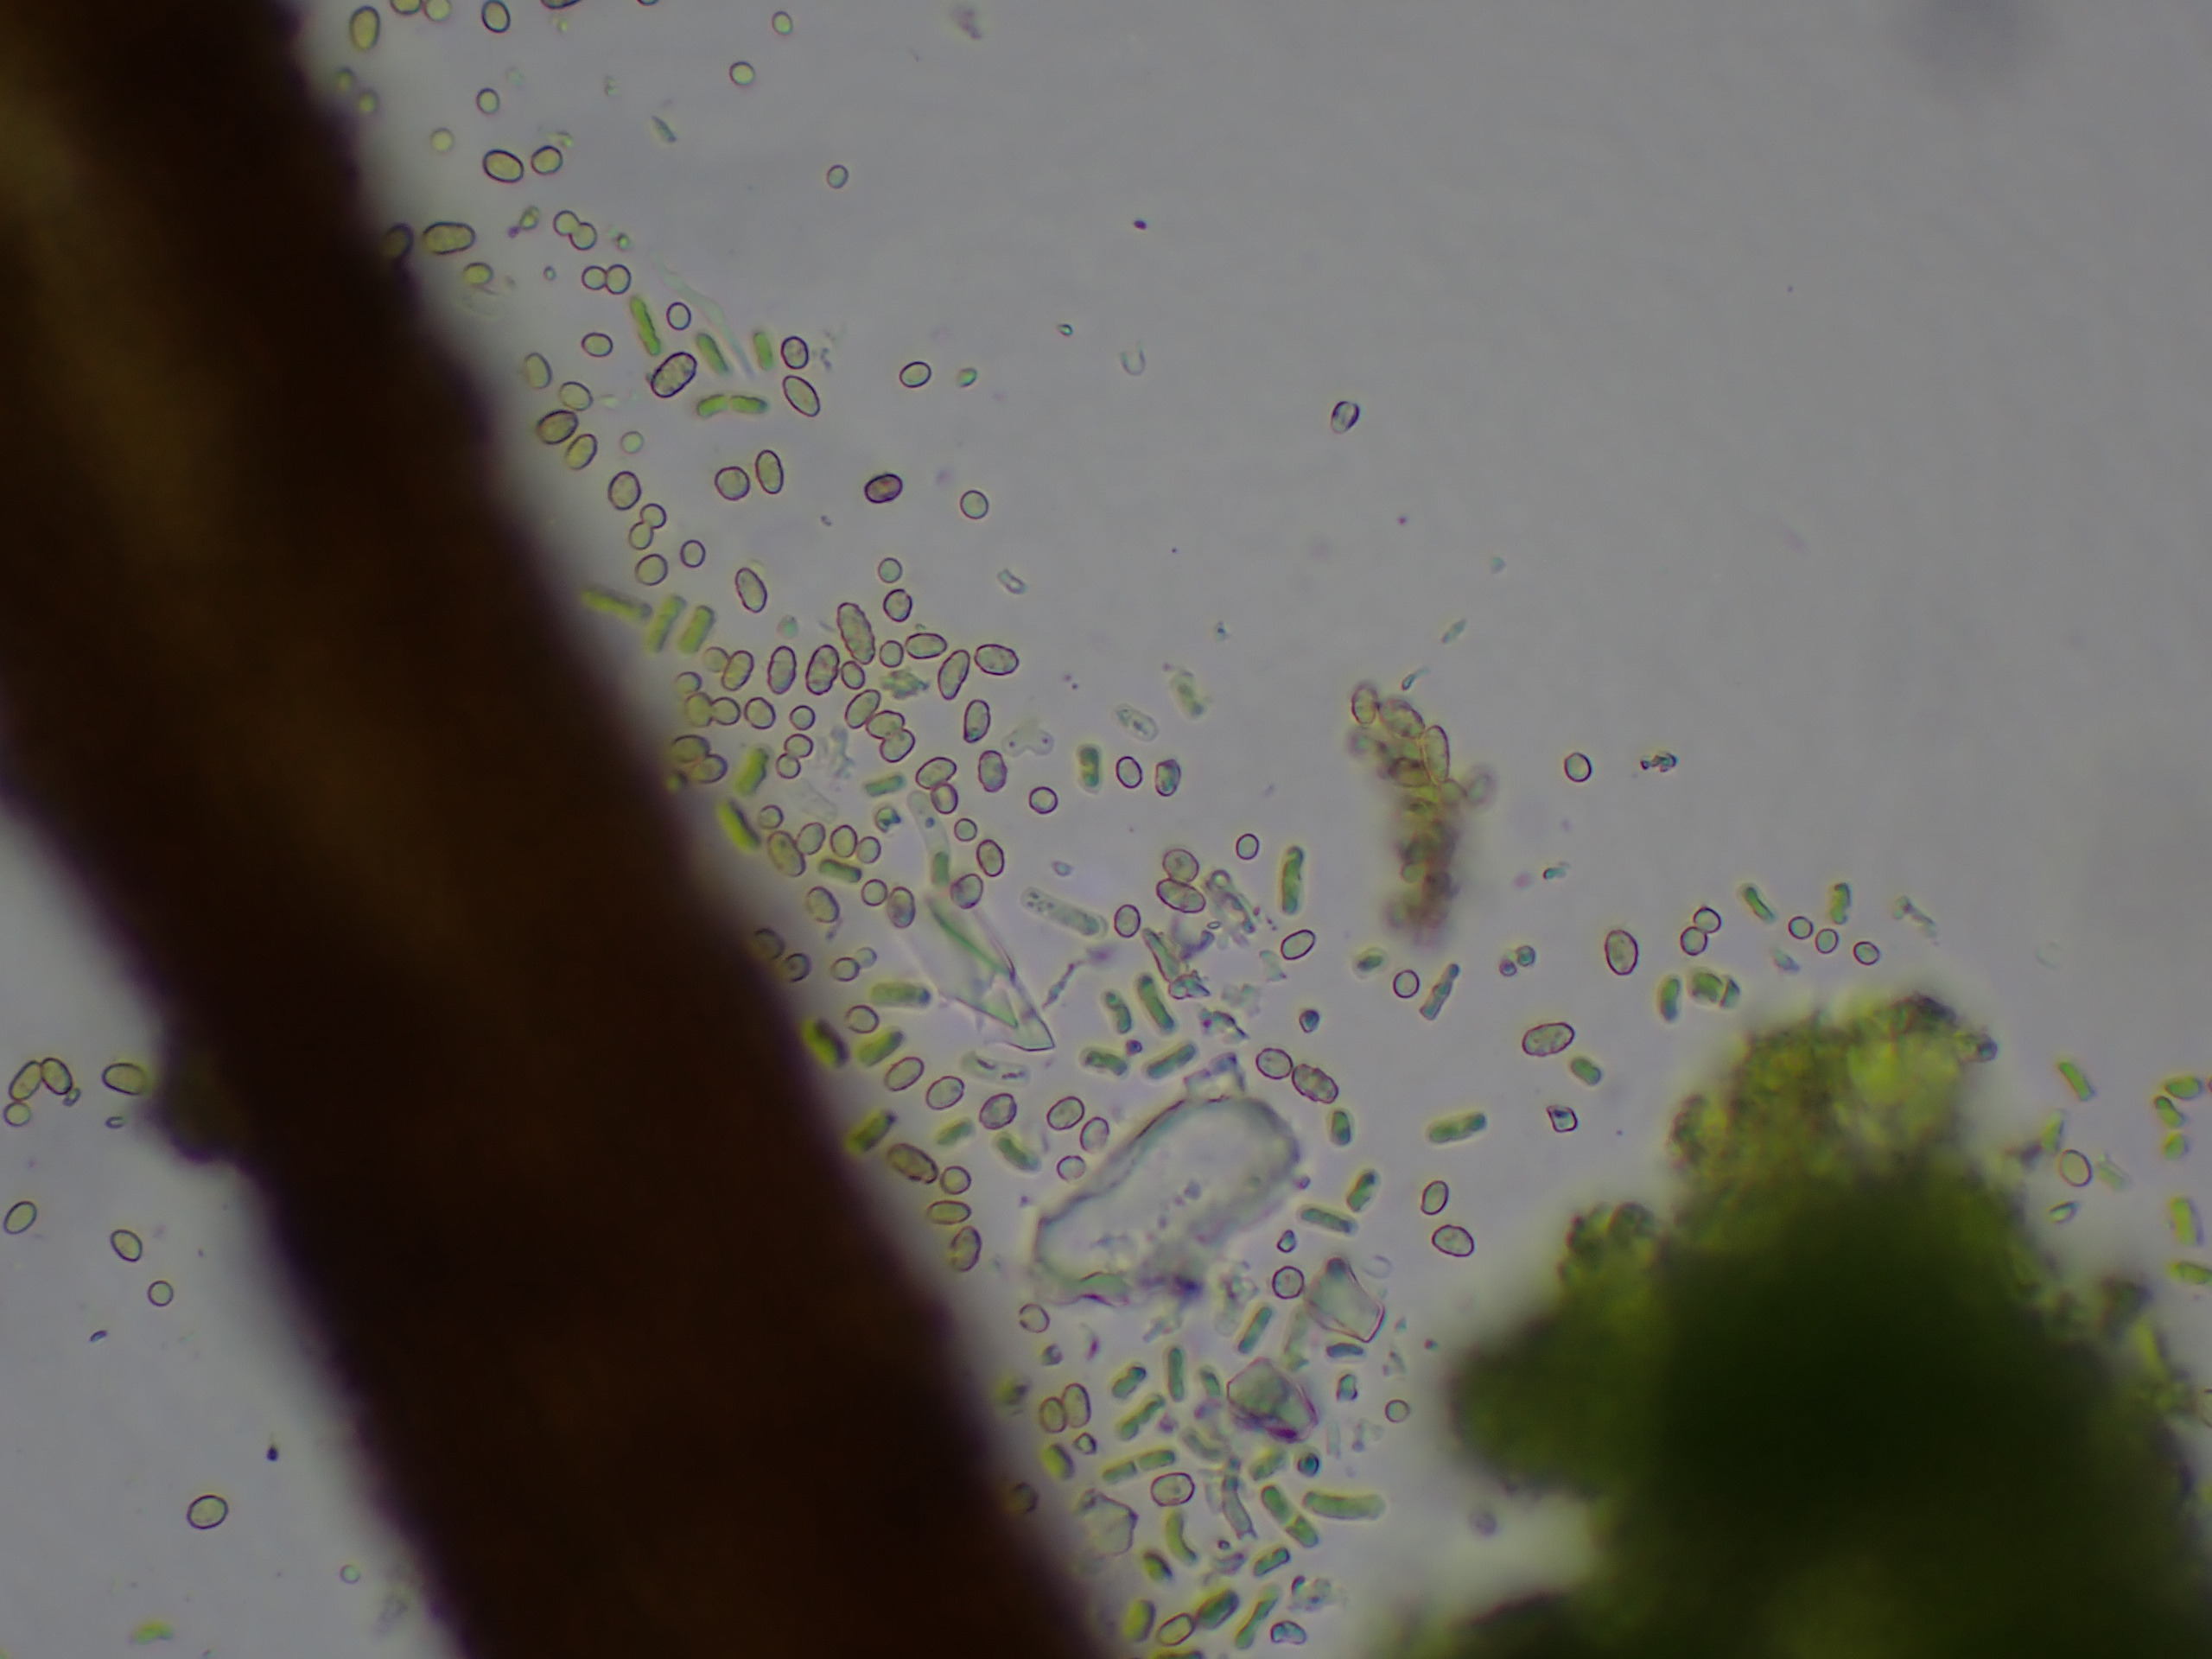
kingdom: Fungi
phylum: Ascomycota
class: Coniocybomycetes
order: Coniocybales
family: Coniocybaceae
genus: Chaenotheca
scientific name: Chaenotheca chlorella
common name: Grønlig knappenålslav
